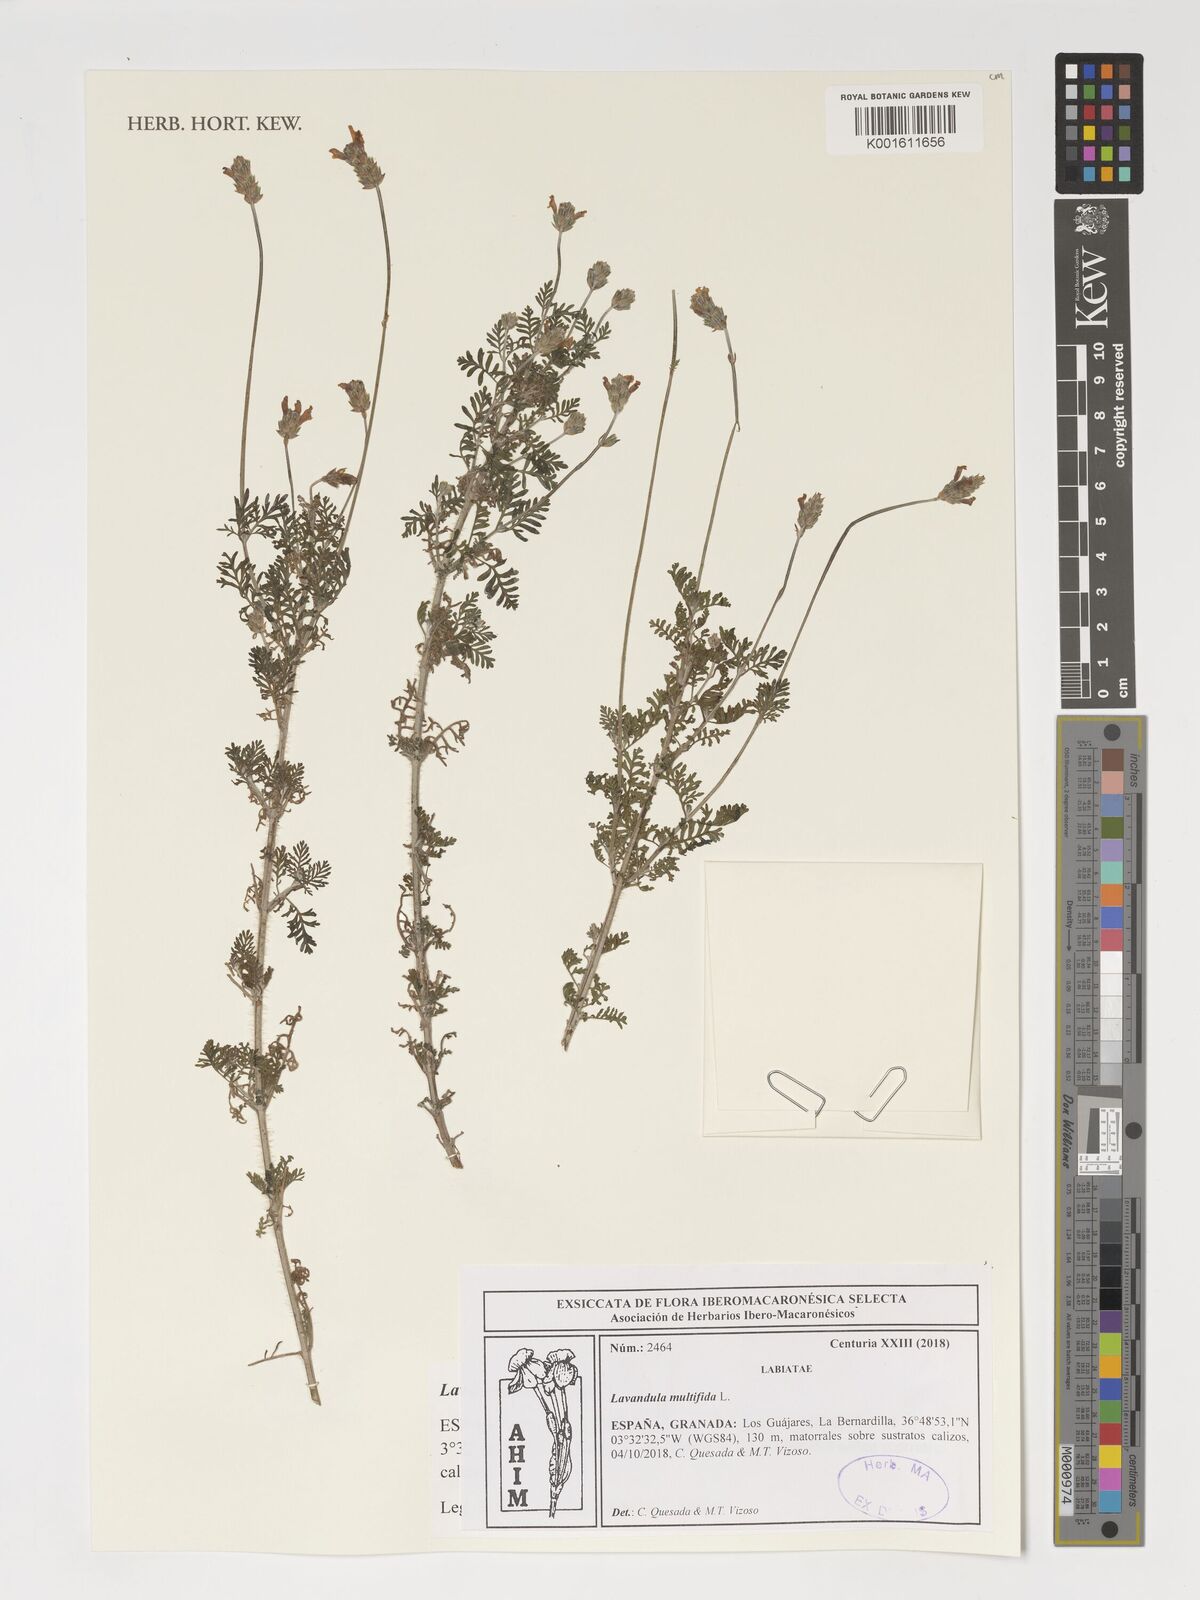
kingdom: Plantae
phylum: Tracheophyta
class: Magnoliopsida
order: Lamiales
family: Lamiaceae
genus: Lavandula
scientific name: Lavandula multifida
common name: Fern-leaf lavender
